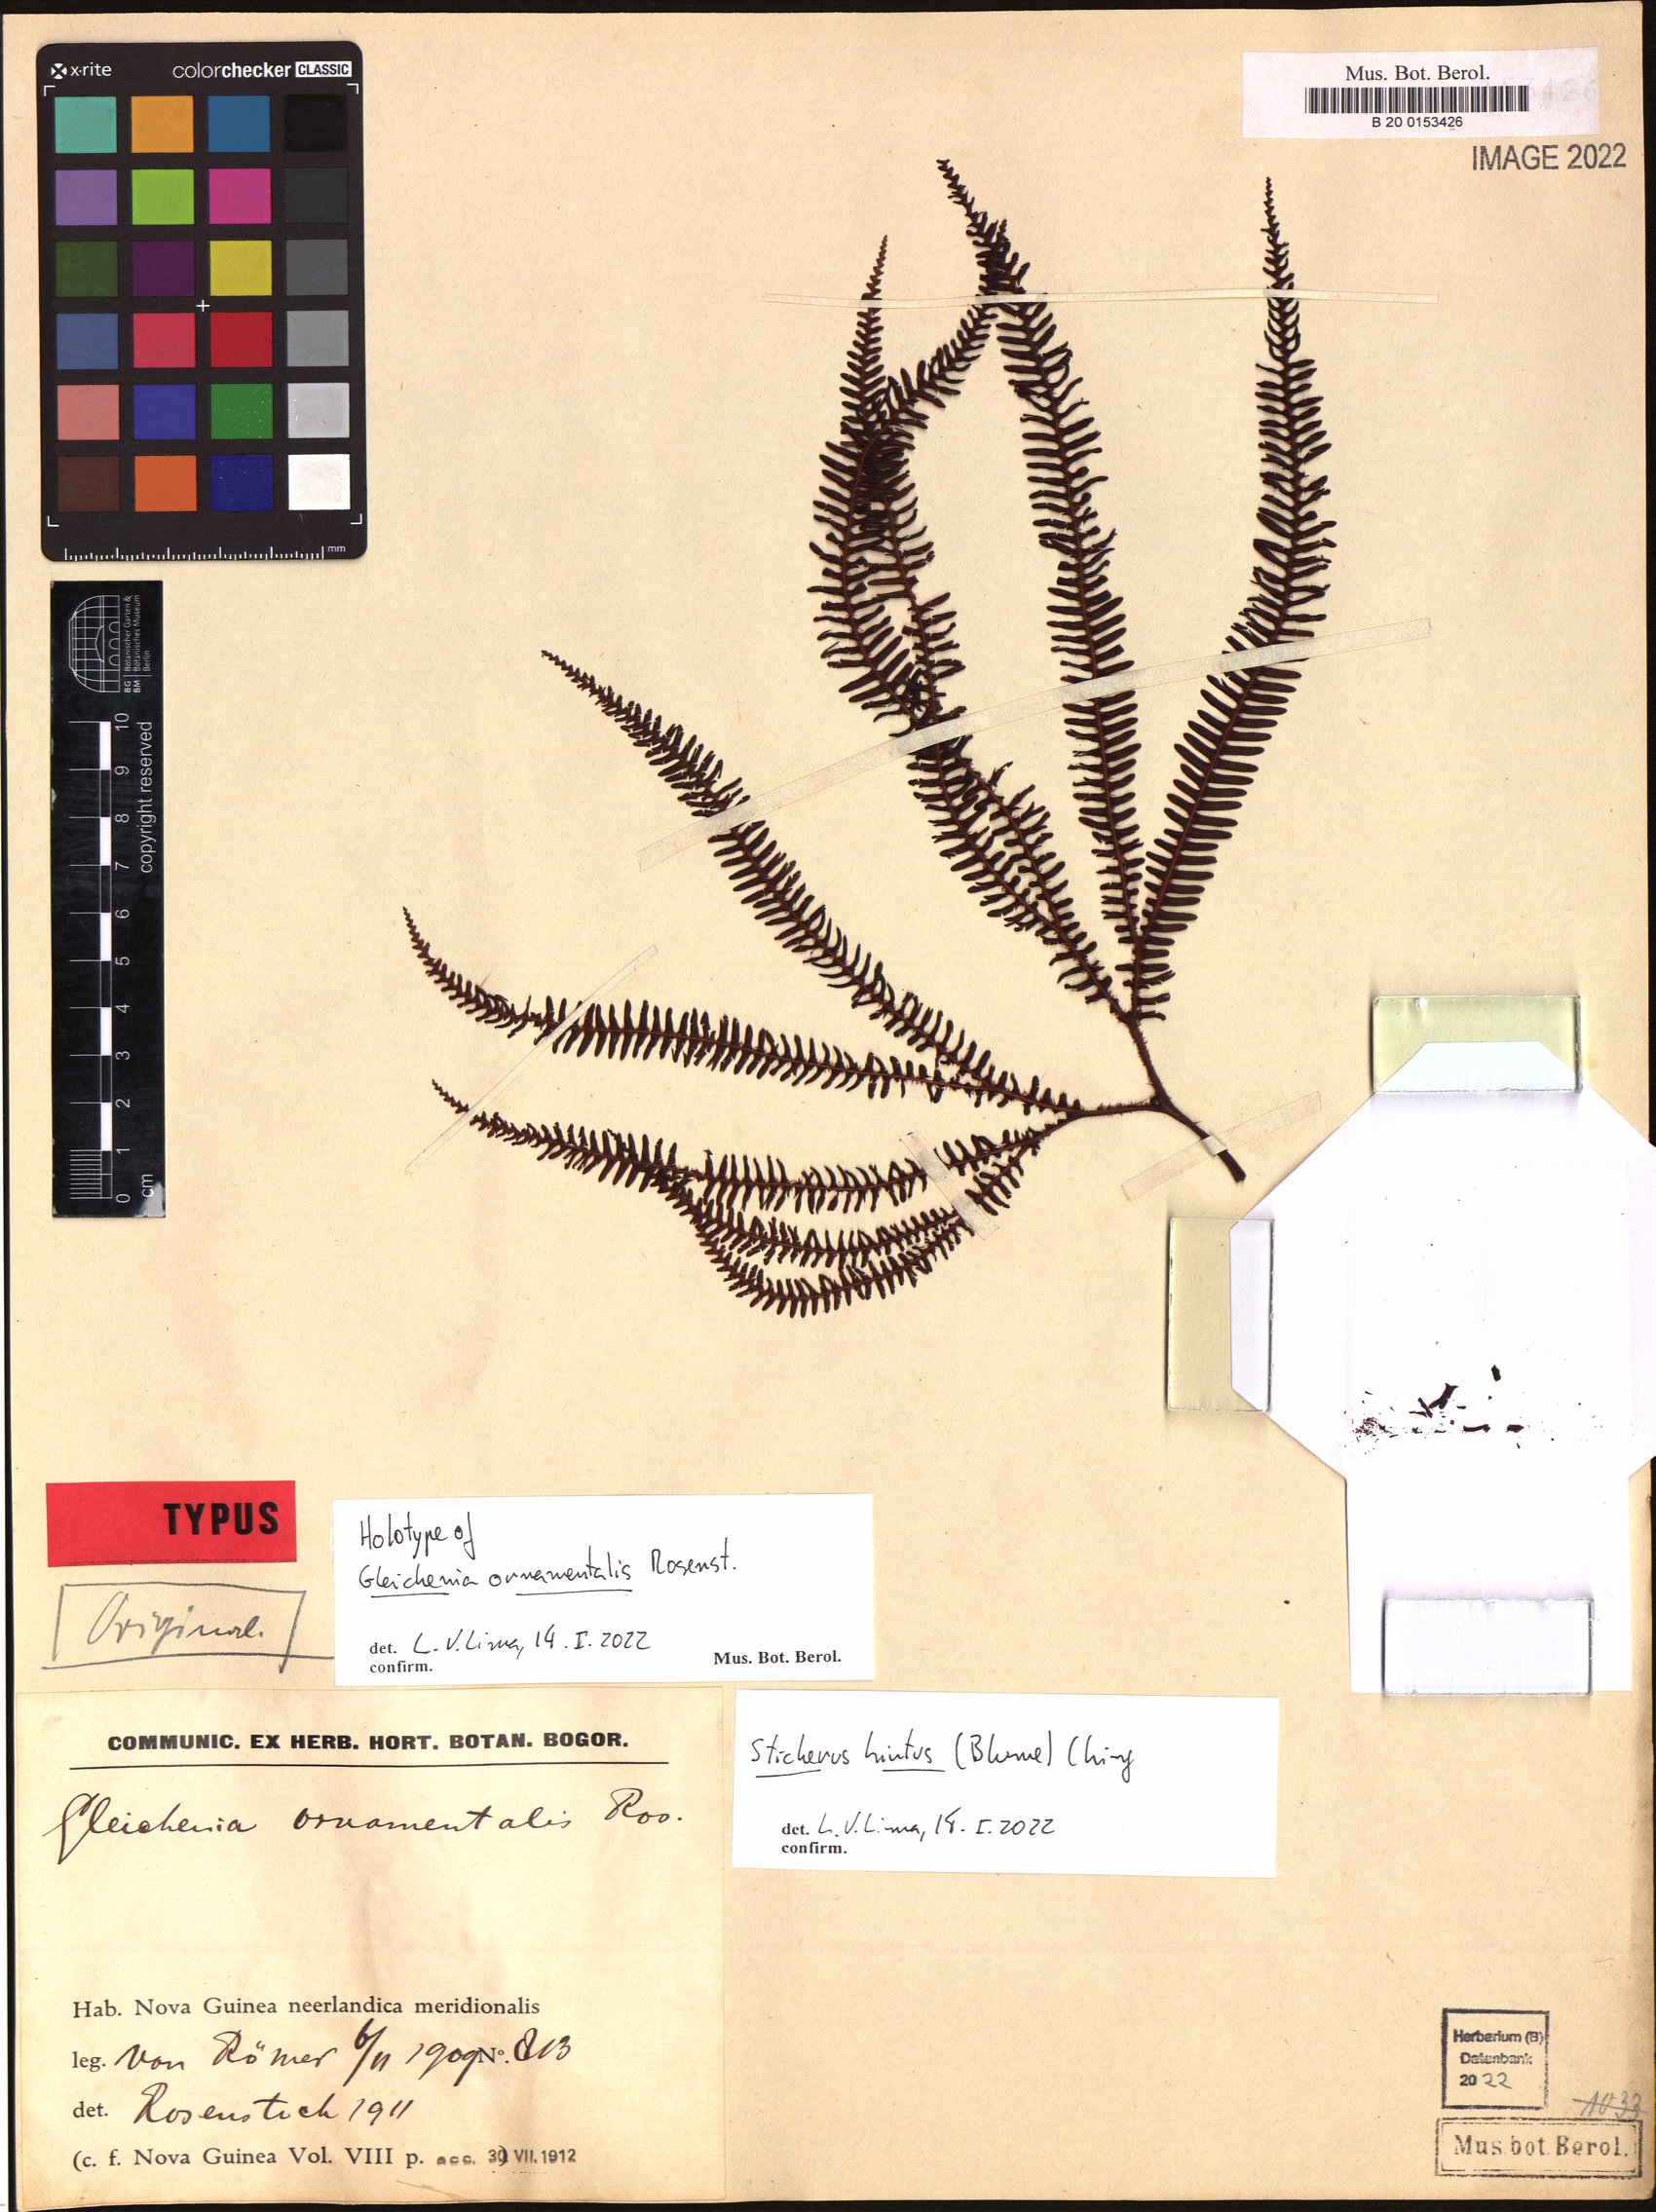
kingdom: Plantae
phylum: Tracheophyta
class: Polypodiopsida
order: Gleicheniales
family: Gleicheniaceae
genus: Sticherus
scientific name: Sticherus hirtus
